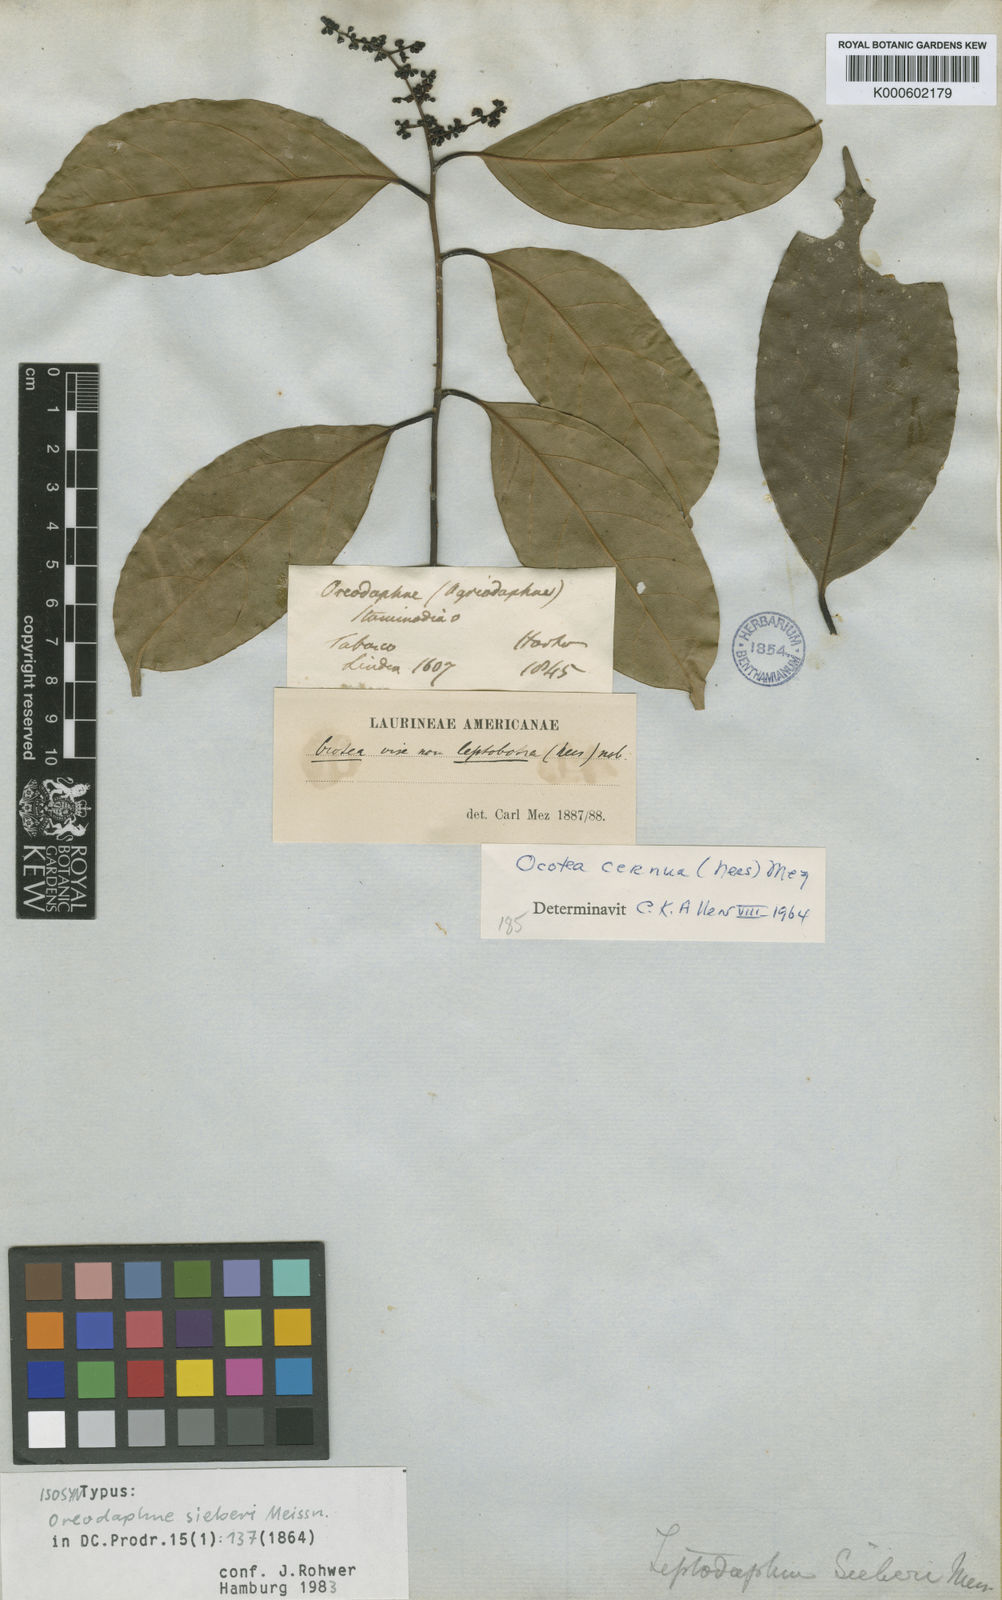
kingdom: Plantae
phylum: Tracheophyta
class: Magnoliopsida
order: Laurales
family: Lauraceae
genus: Ocotea
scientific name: Ocotea leptobotra
